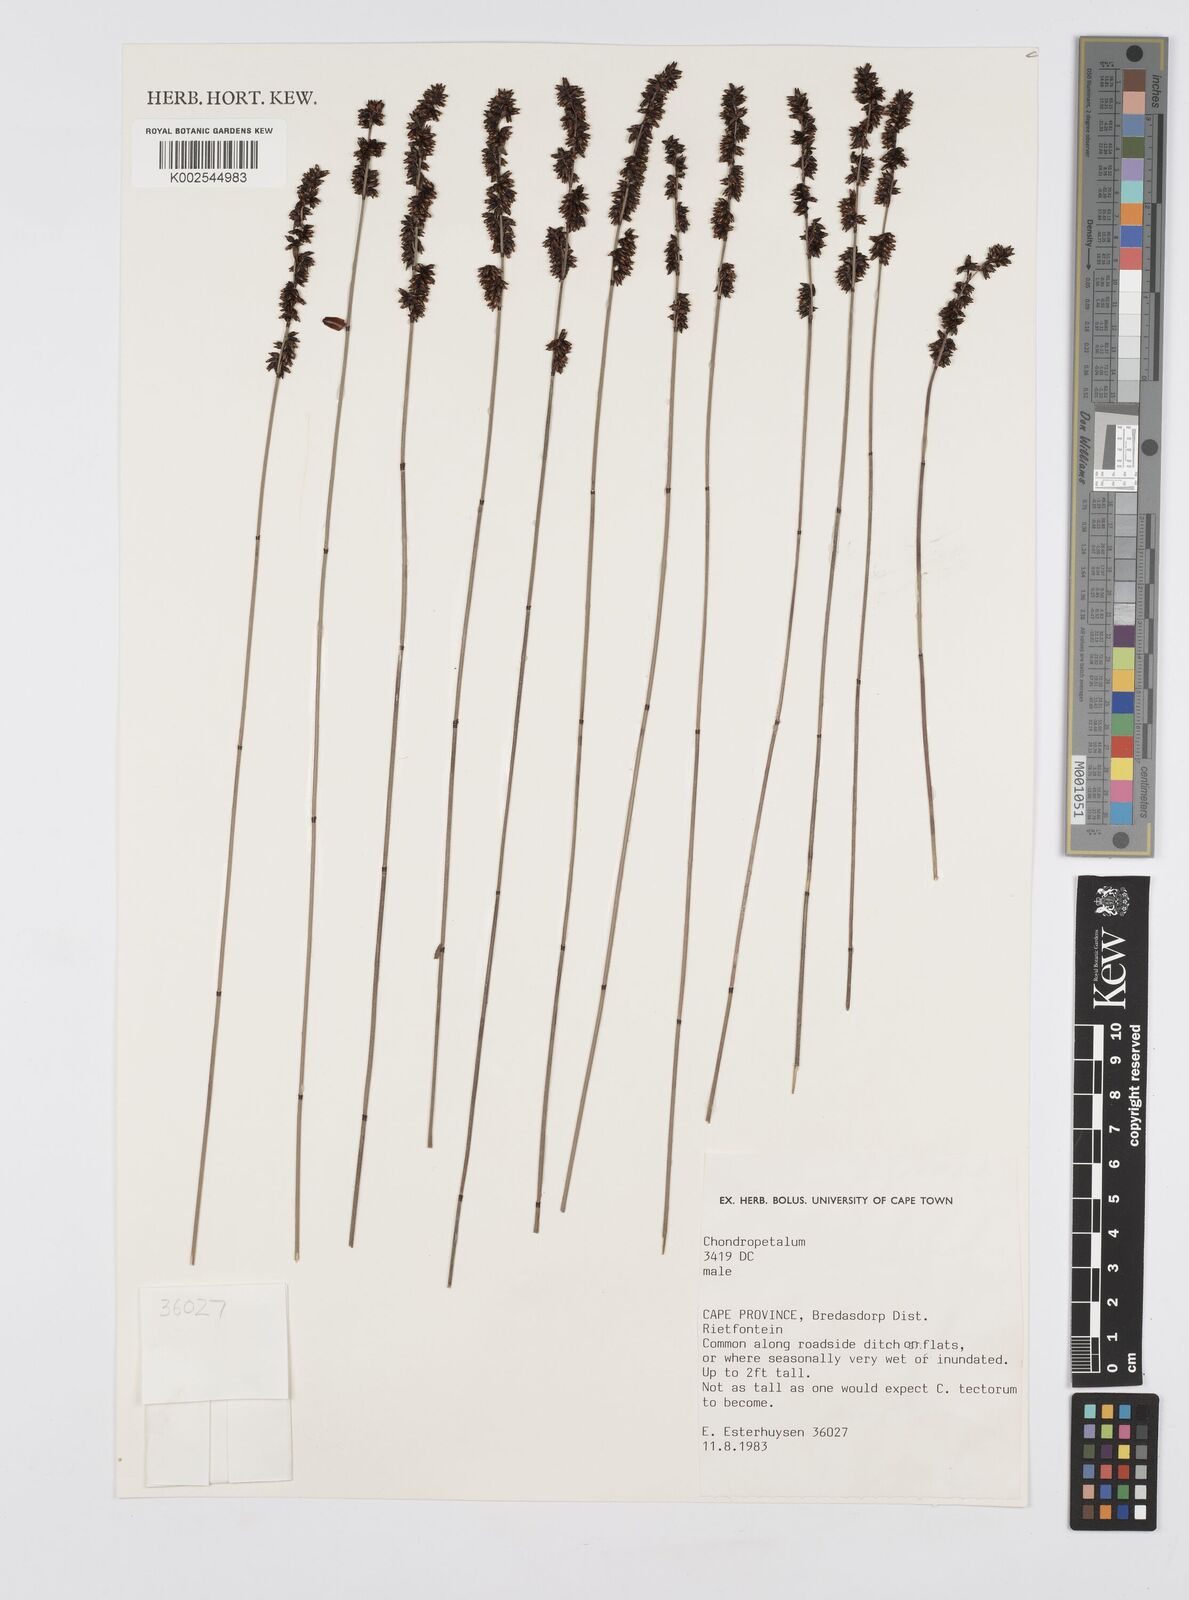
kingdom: Plantae
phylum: Tracheophyta
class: Liliopsida
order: Poales
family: Restionaceae
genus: Elegia
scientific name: Elegia
